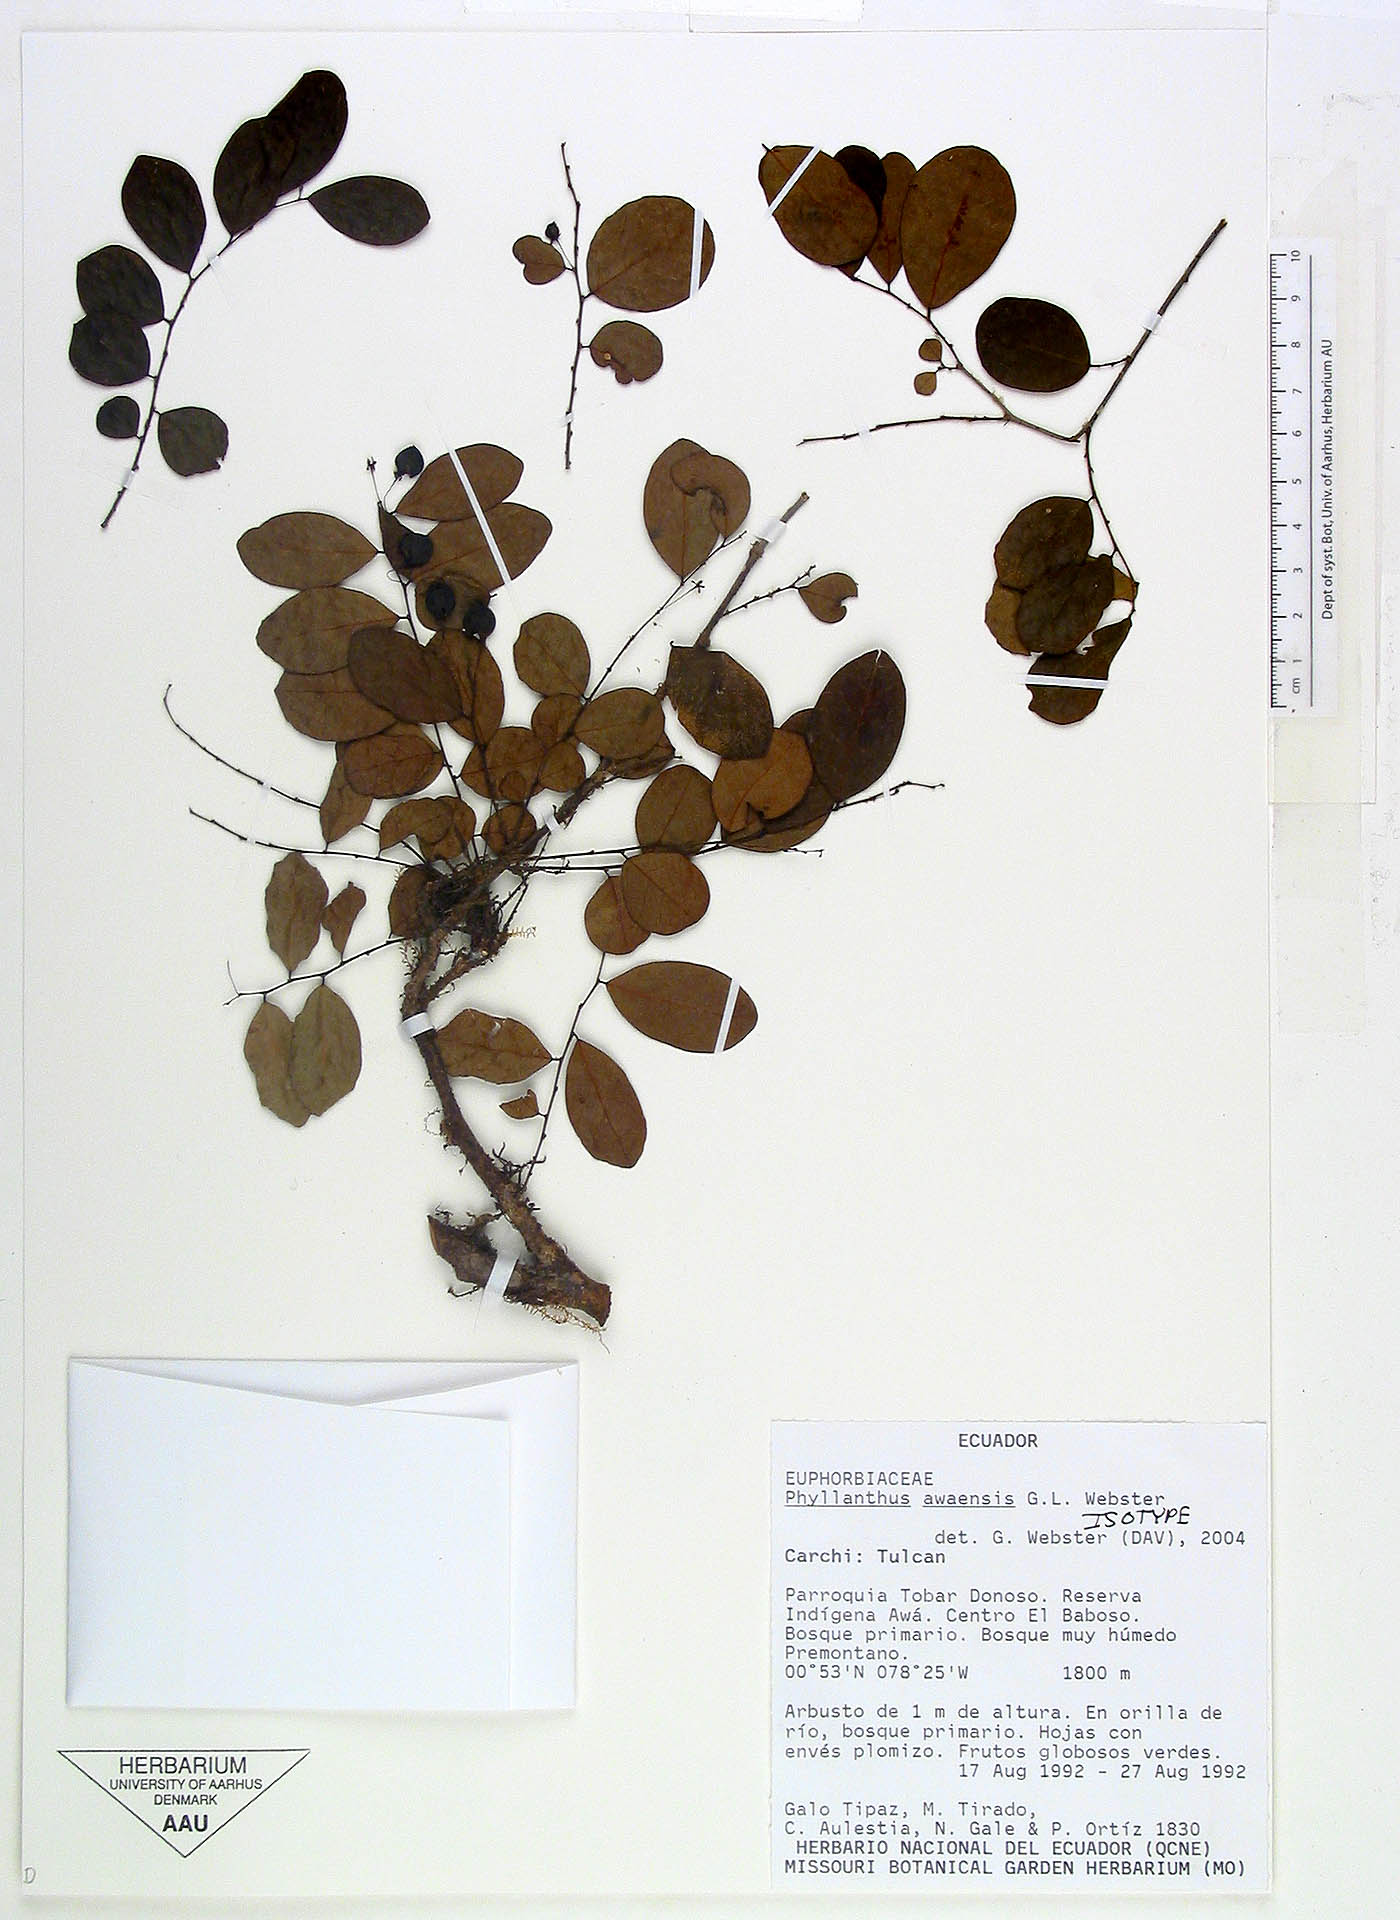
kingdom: Plantae
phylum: Tracheophyta
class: Magnoliopsida
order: Malpighiales
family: Phyllanthaceae
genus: Phyllanthus
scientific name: Phyllanthus awaensis
